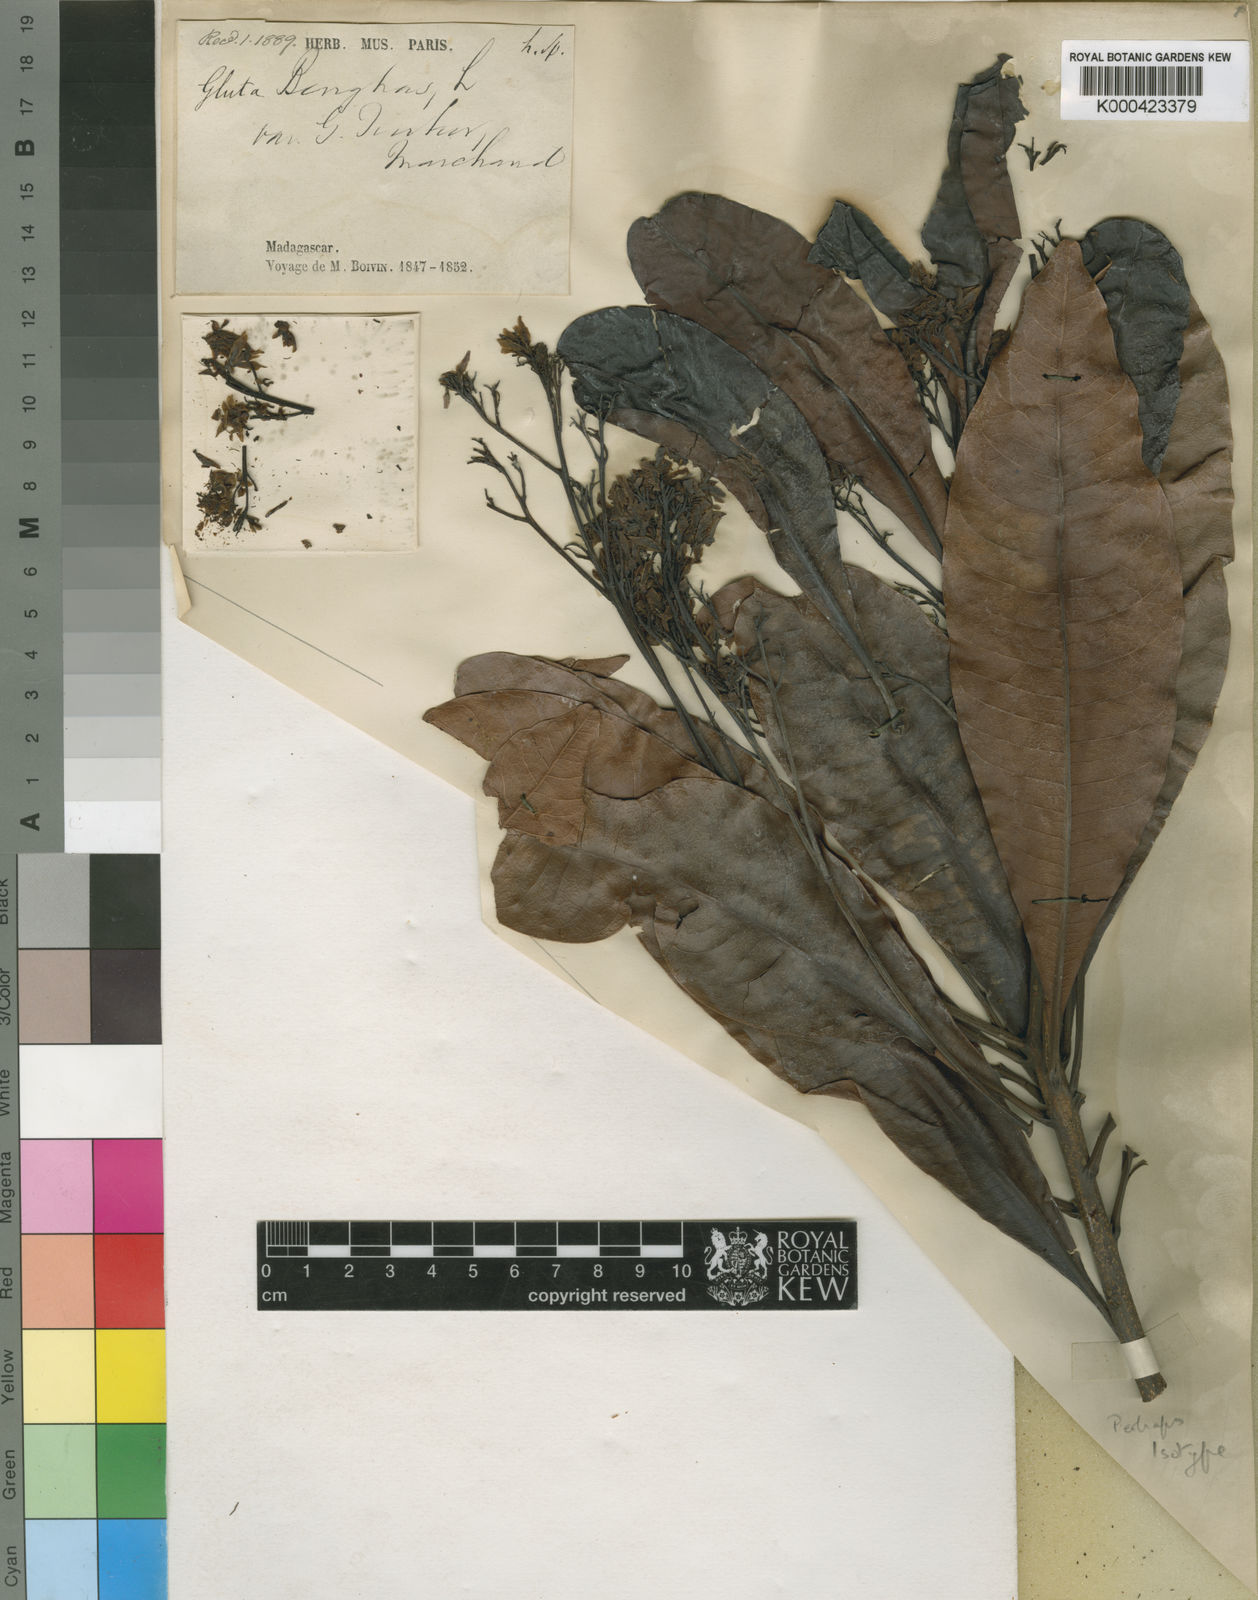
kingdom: Plantae
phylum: Tracheophyta
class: Magnoliopsida
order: Sapindales
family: Anacardiaceae
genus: Gluta
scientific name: Gluta tourtour
